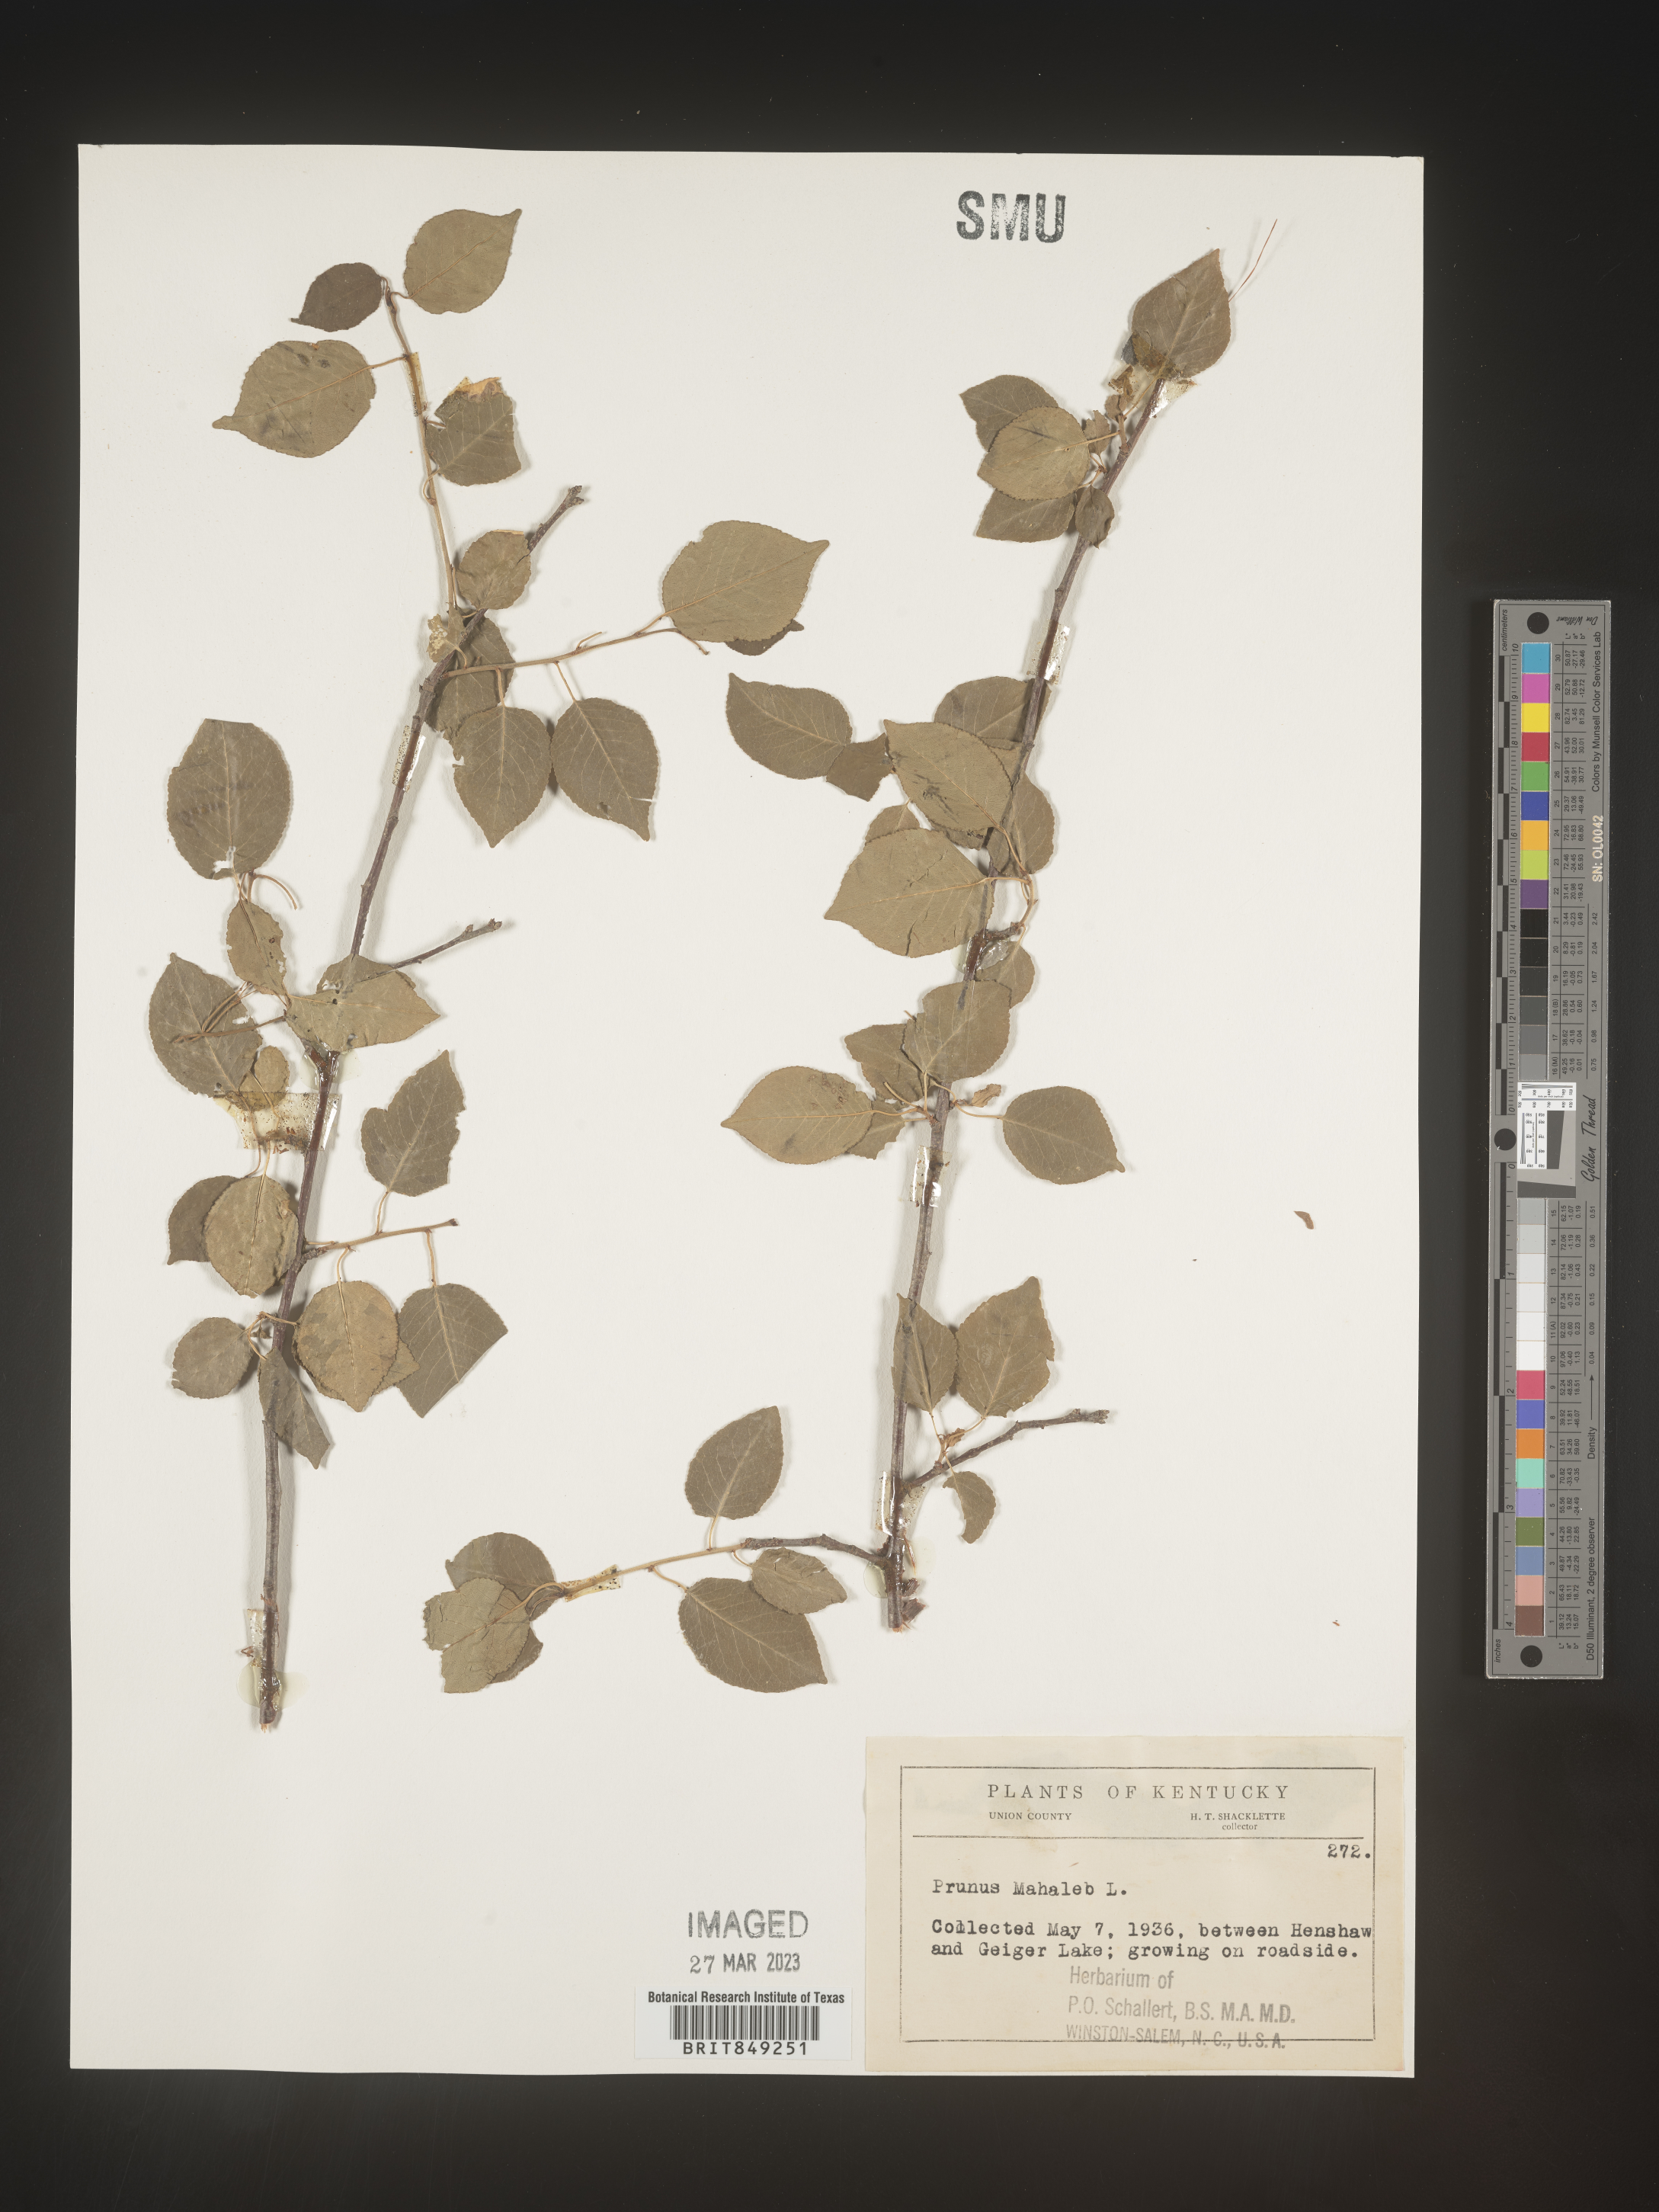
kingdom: Plantae
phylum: Tracheophyta
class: Magnoliopsida
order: Rosales
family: Rosaceae
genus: Prunus
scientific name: Prunus
